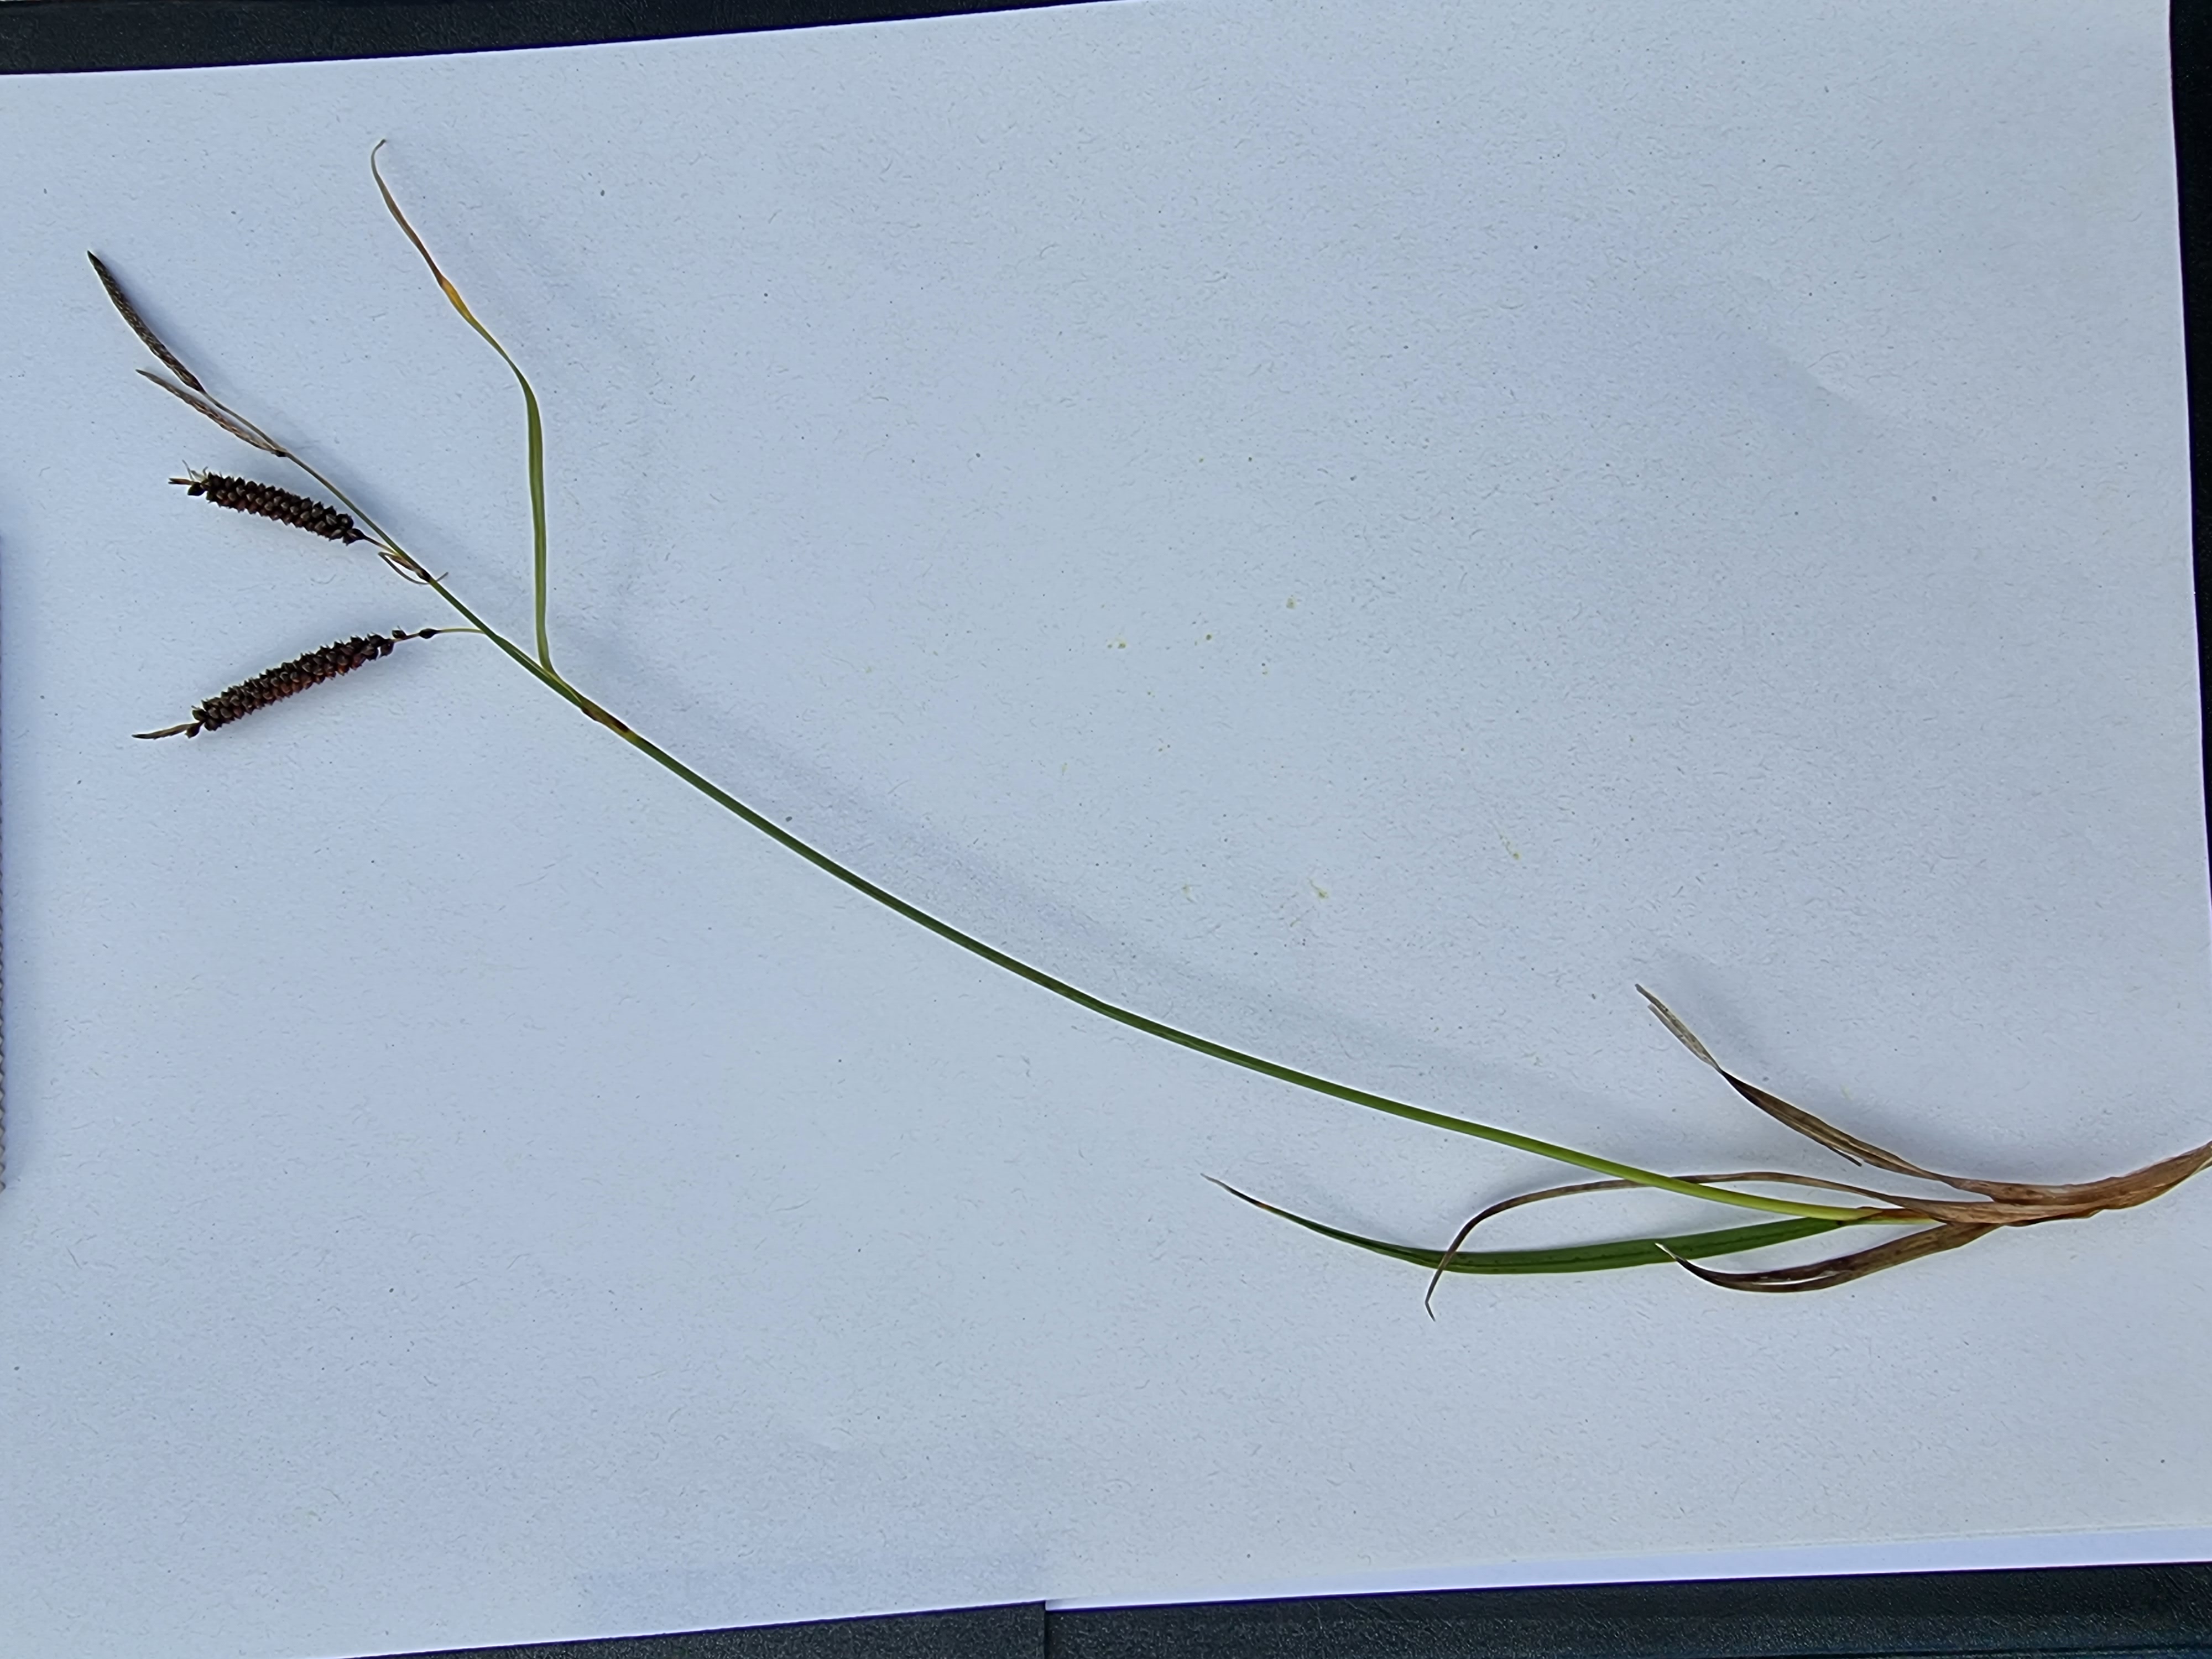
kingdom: Plantae
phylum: Tracheophyta
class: Liliopsida
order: Poales
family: Cyperaceae
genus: Carex
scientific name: Carex flacca
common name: Blågrøn star
